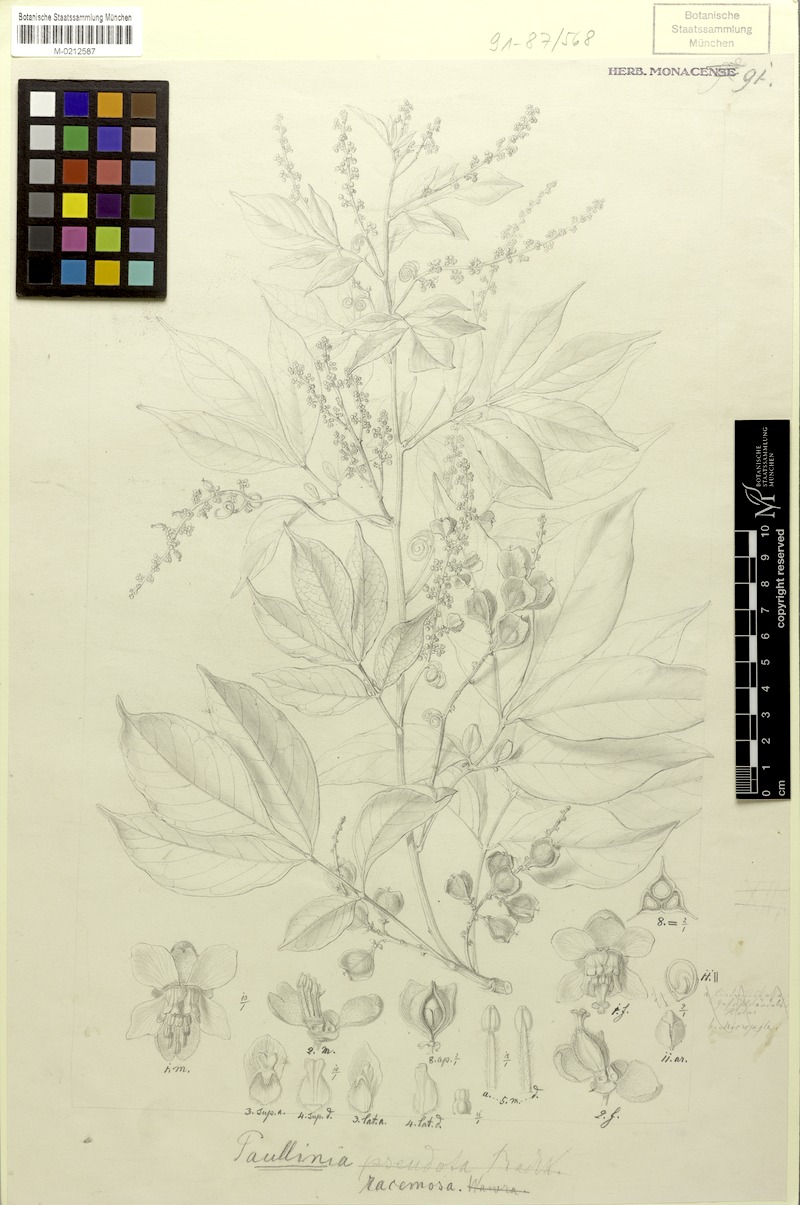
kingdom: Plantae
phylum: Tracheophyta
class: Magnoliopsida
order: Sapindales
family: Sapindaceae
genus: Paullinia
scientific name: Paullinia racemosa
